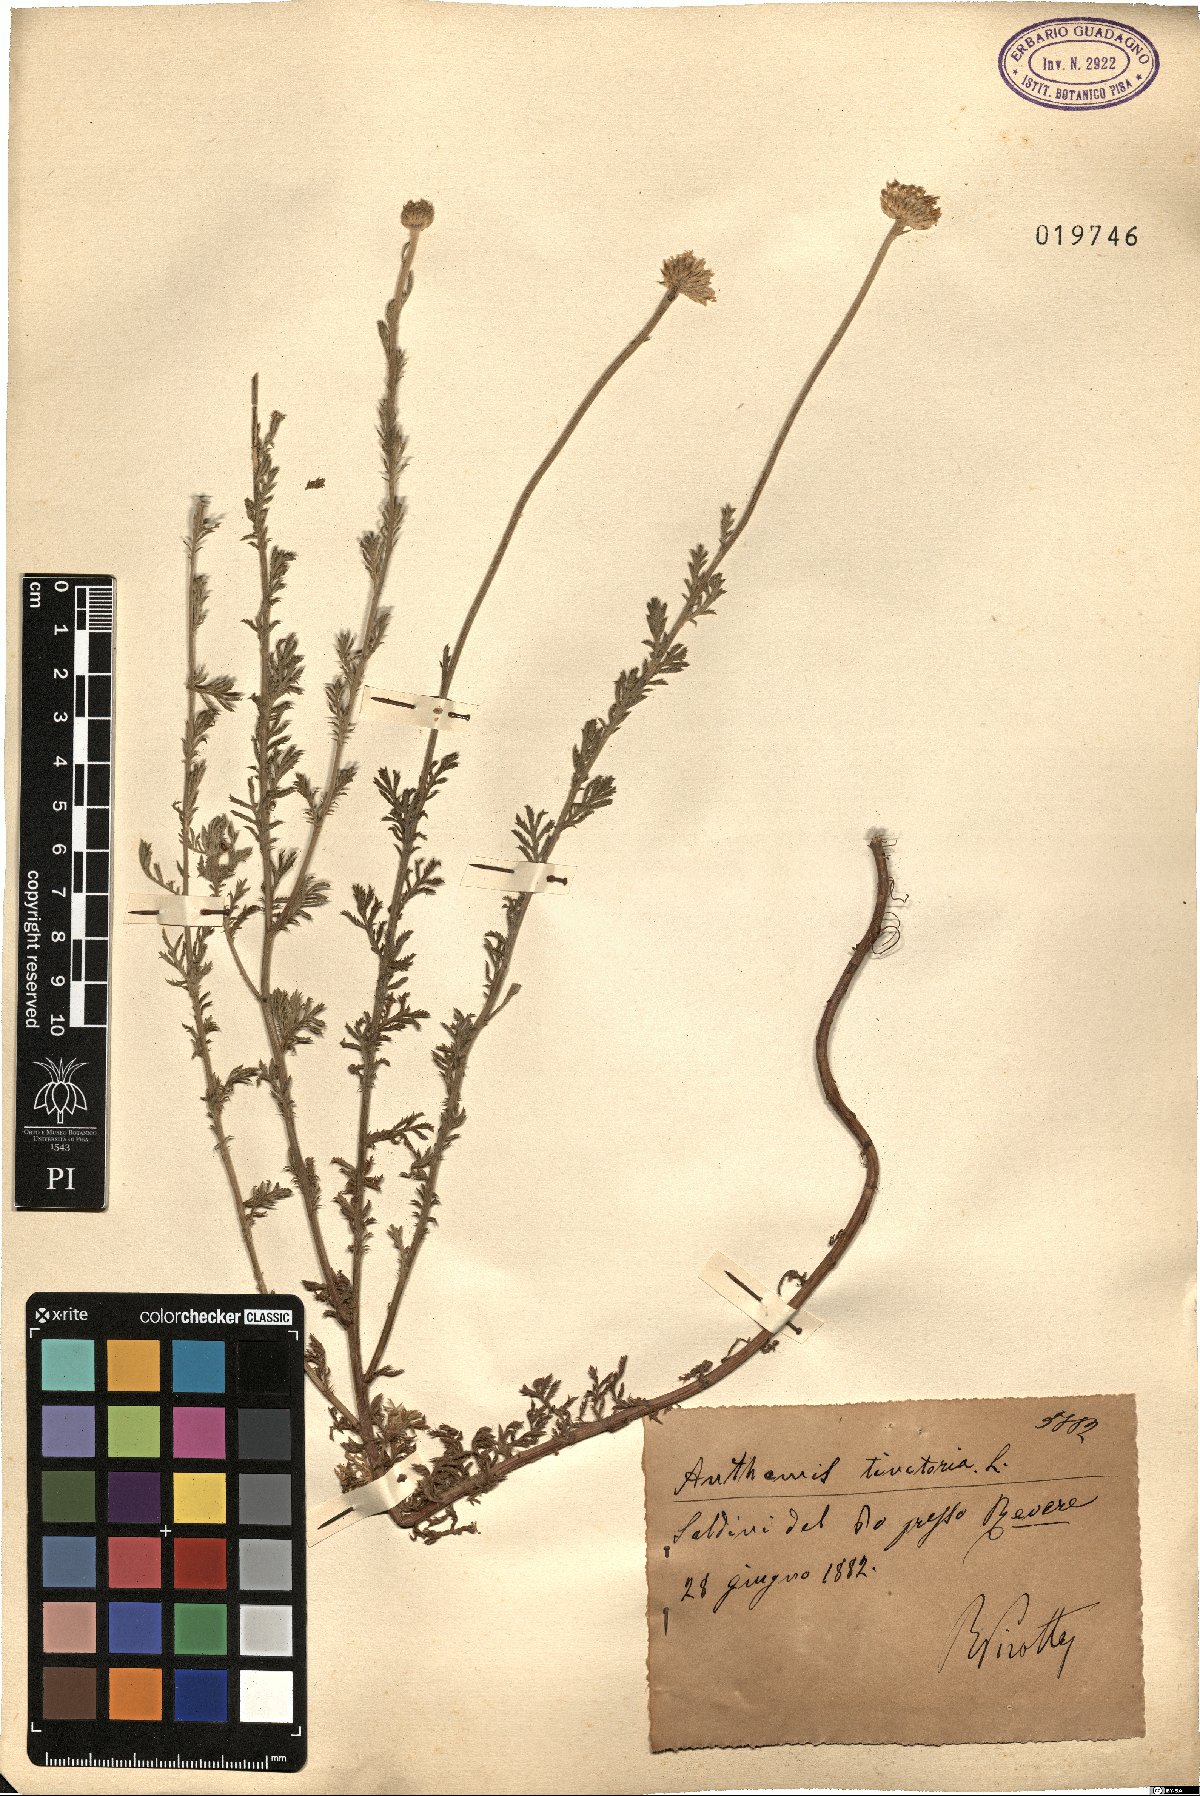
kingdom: Plantae
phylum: Tracheophyta
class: Magnoliopsida
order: Asterales
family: Asteraceae
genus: Cota
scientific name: Cota tinctoria
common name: Golden chamomile
